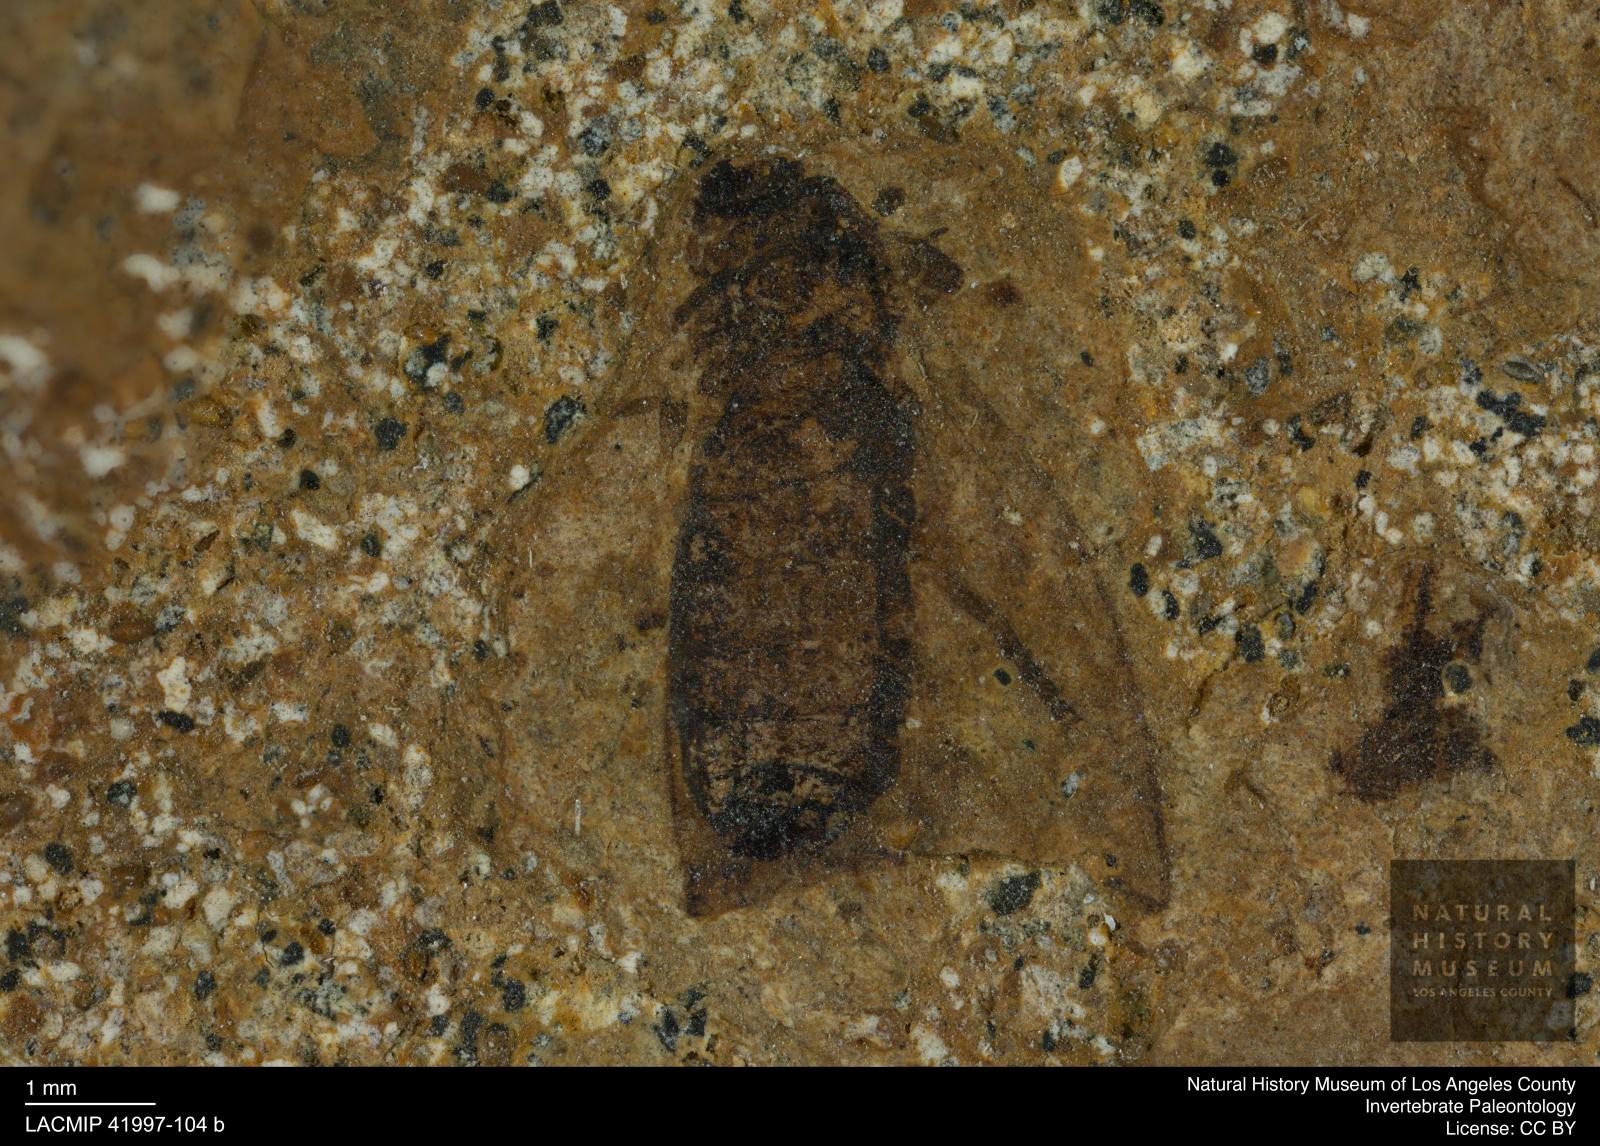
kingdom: Animalia
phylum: Arthropoda
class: Insecta
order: Diptera
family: Bibionidae
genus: Plecia
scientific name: Plecia stygia
